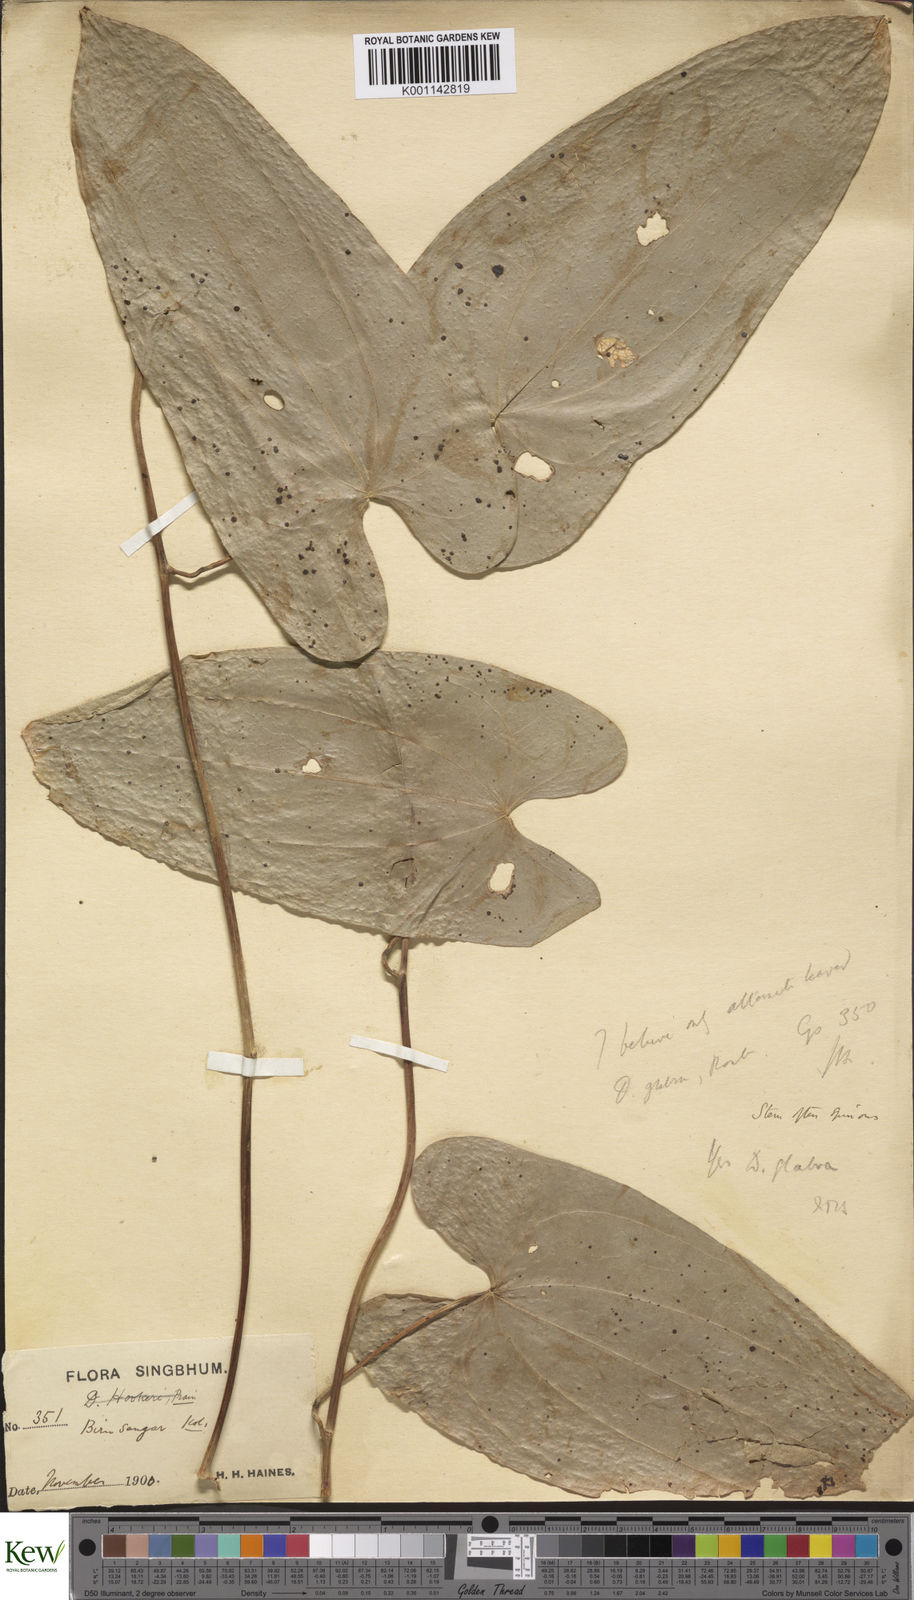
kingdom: Plantae
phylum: Tracheophyta
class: Liliopsida
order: Dioscoreales
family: Dioscoreaceae
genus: Dioscorea
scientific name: Dioscorea
